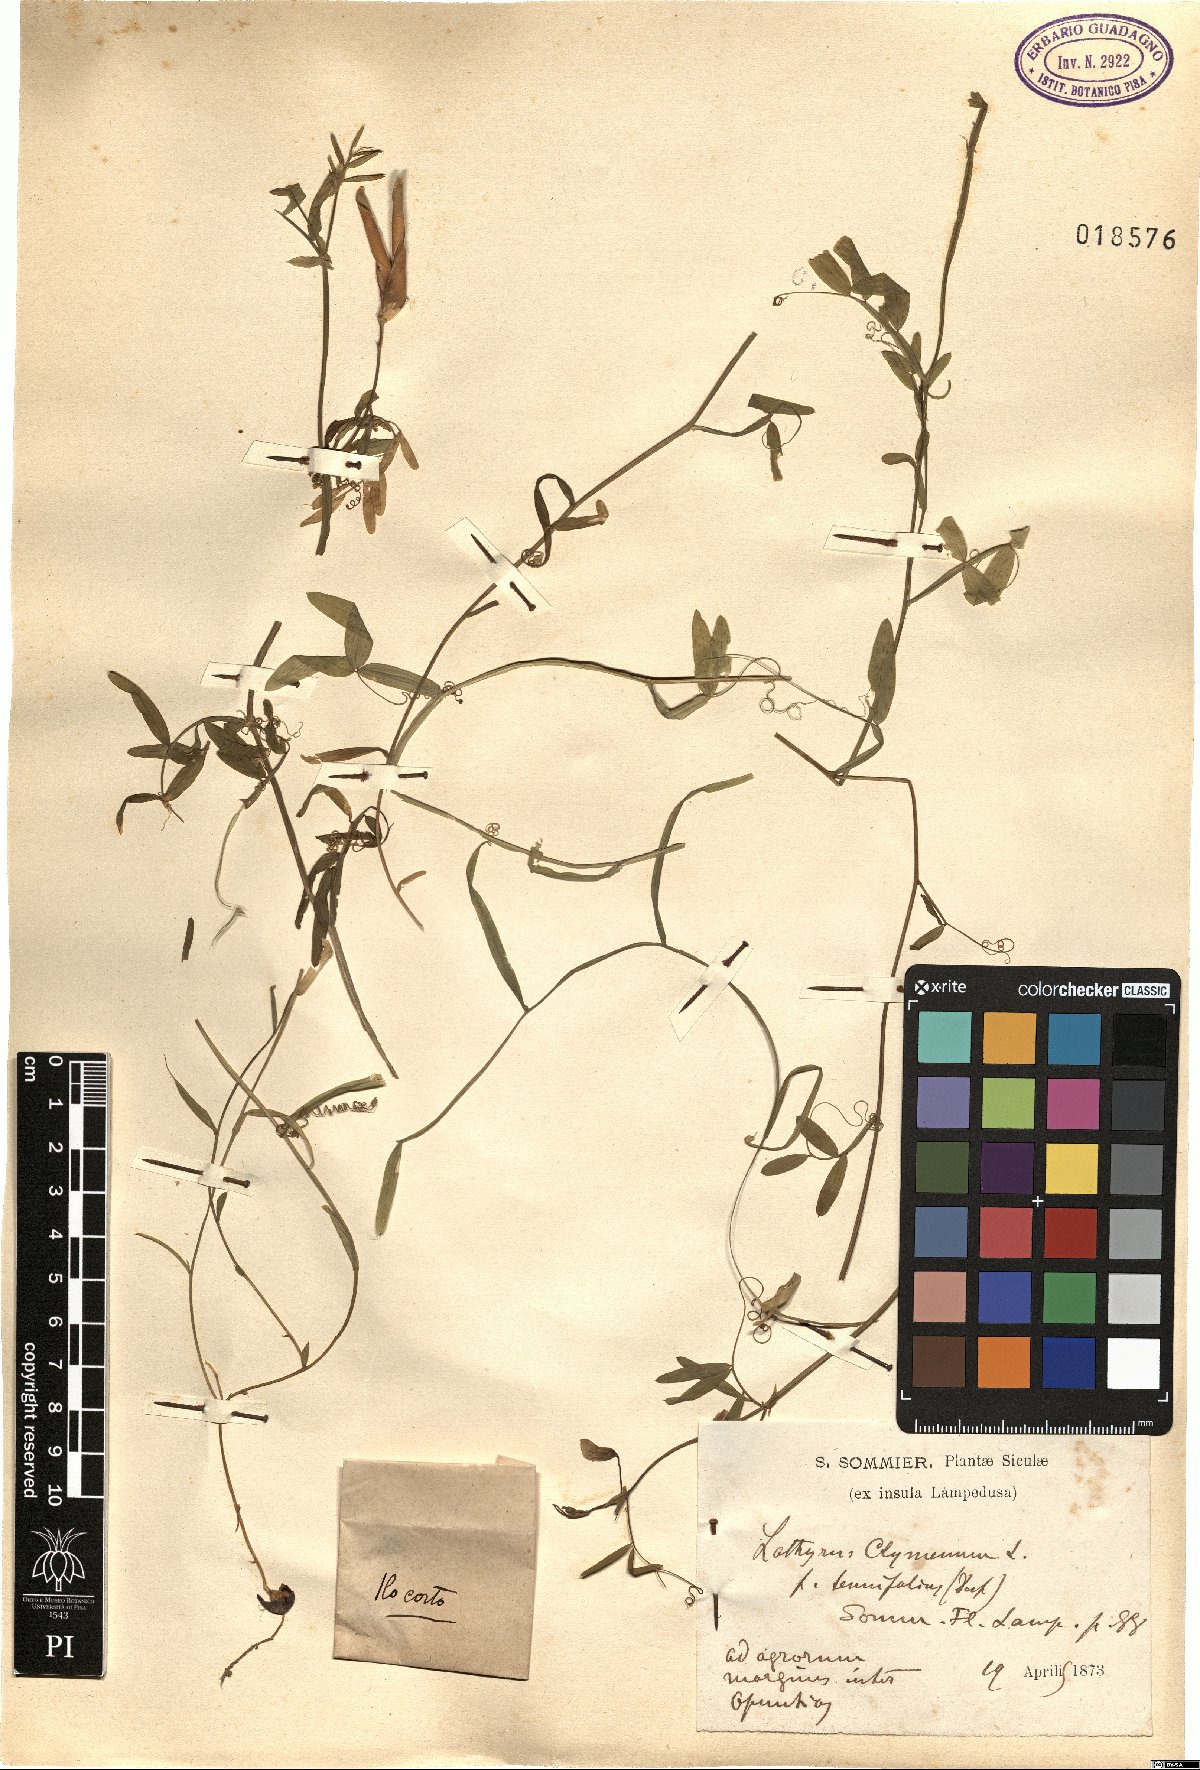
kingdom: Plantae
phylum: Tracheophyta
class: Magnoliopsida
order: Fabales
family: Fabaceae
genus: Lathyrus
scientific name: Lathyrus clymenum
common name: Spanish vetchling
